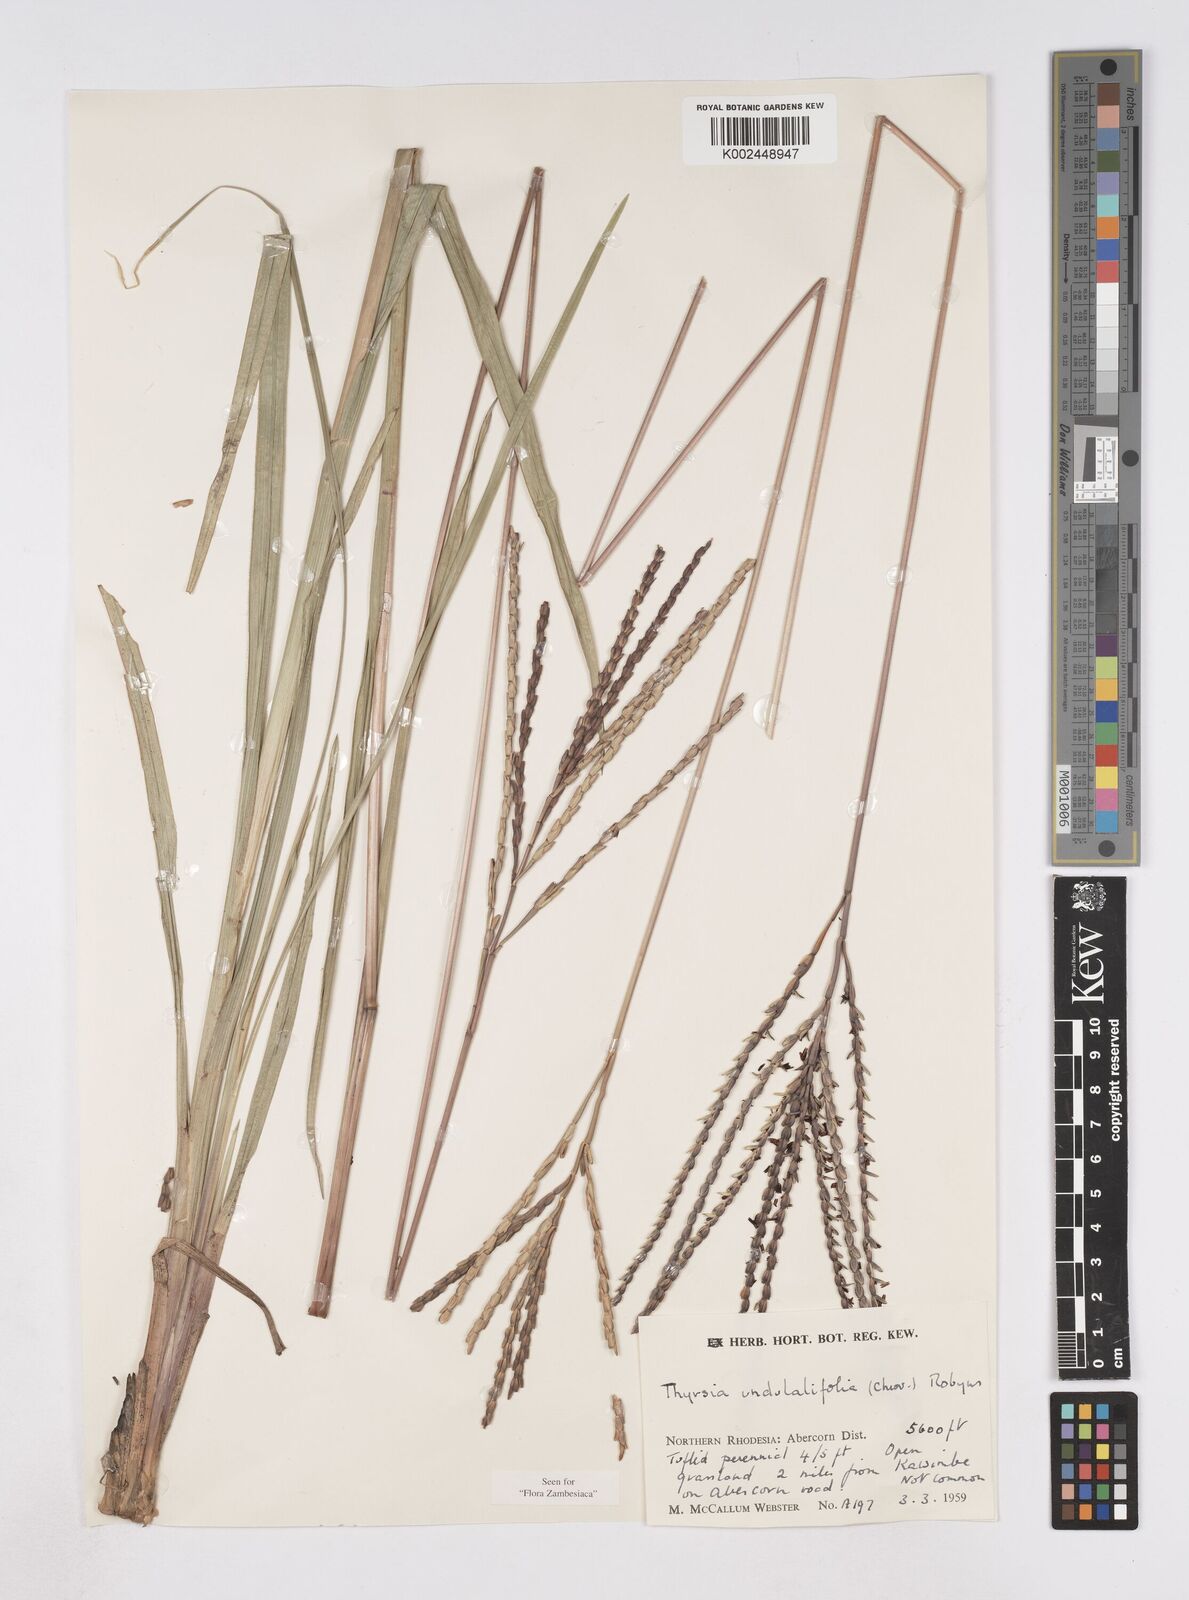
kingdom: Plantae
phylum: Tracheophyta
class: Liliopsida
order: Poales
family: Poaceae
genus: Thyrsia
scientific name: Thyrsia huillensis
